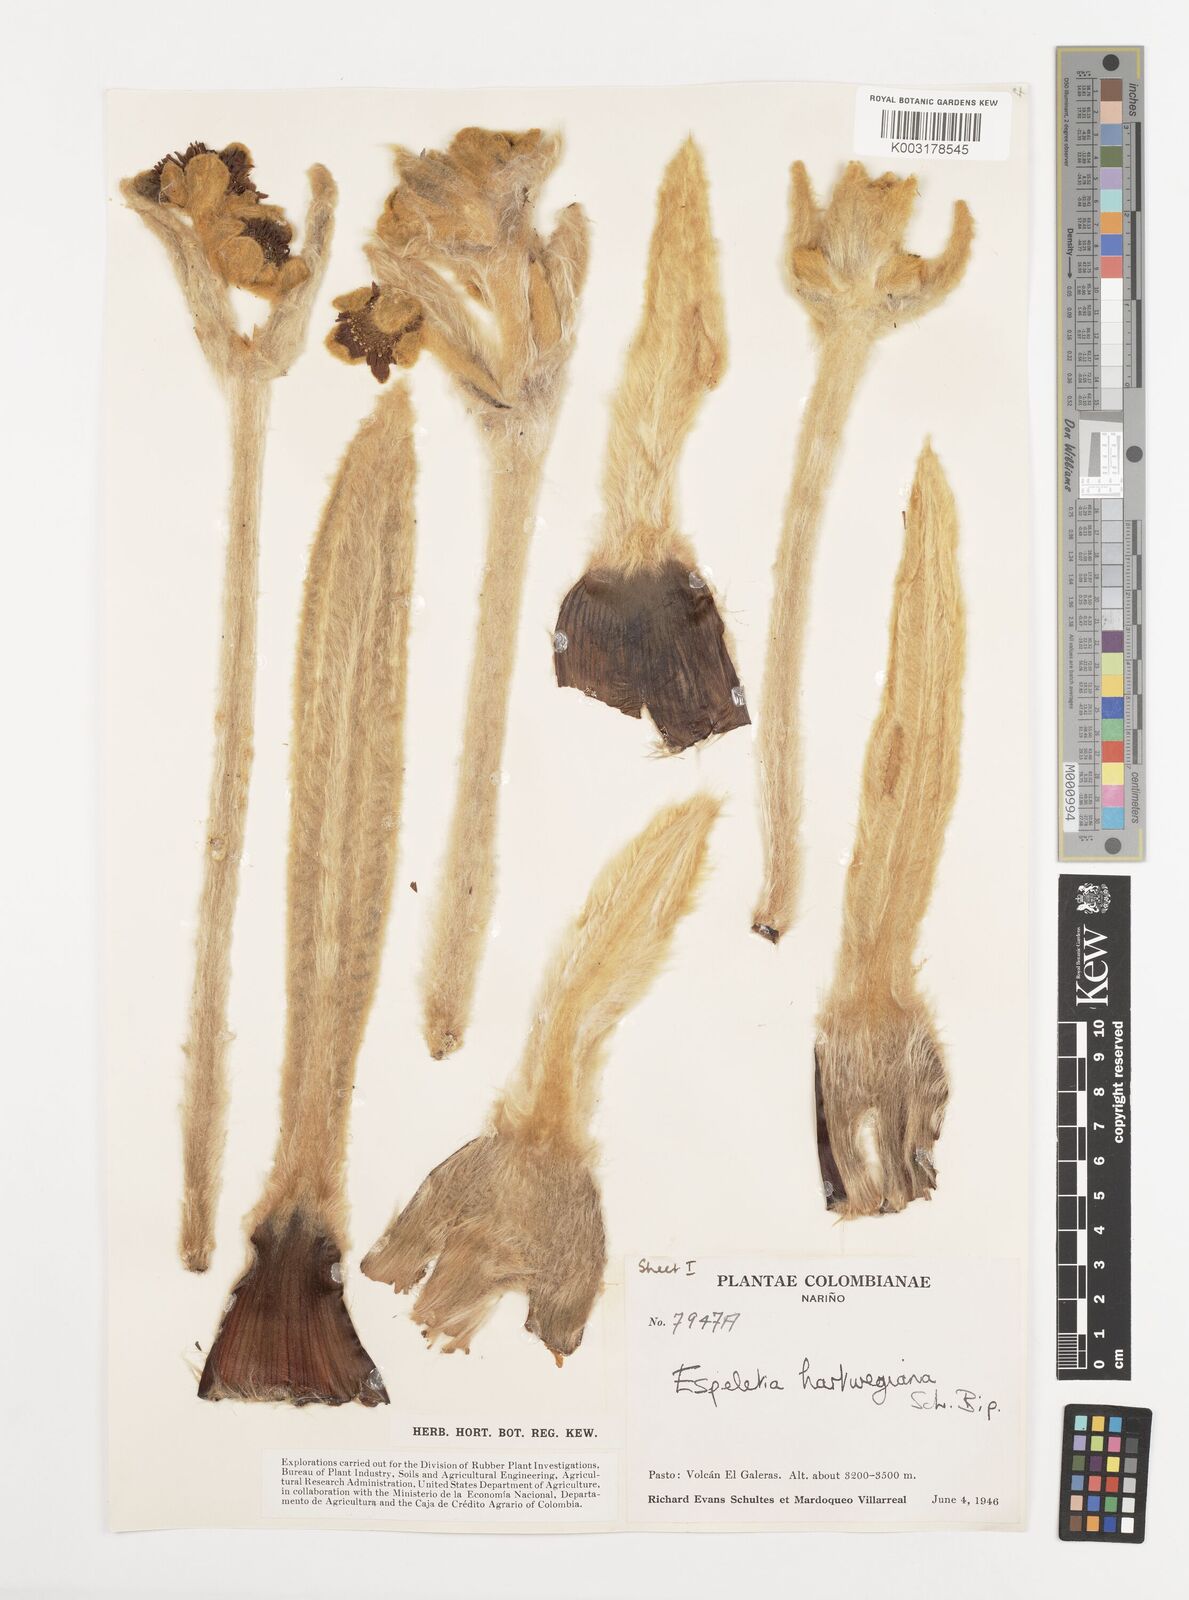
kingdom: Plantae
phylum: Tracheophyta
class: Magnoliopsida
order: Asterales
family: Asteraceae
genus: Espeletia
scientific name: Espeletia hartwegiana
